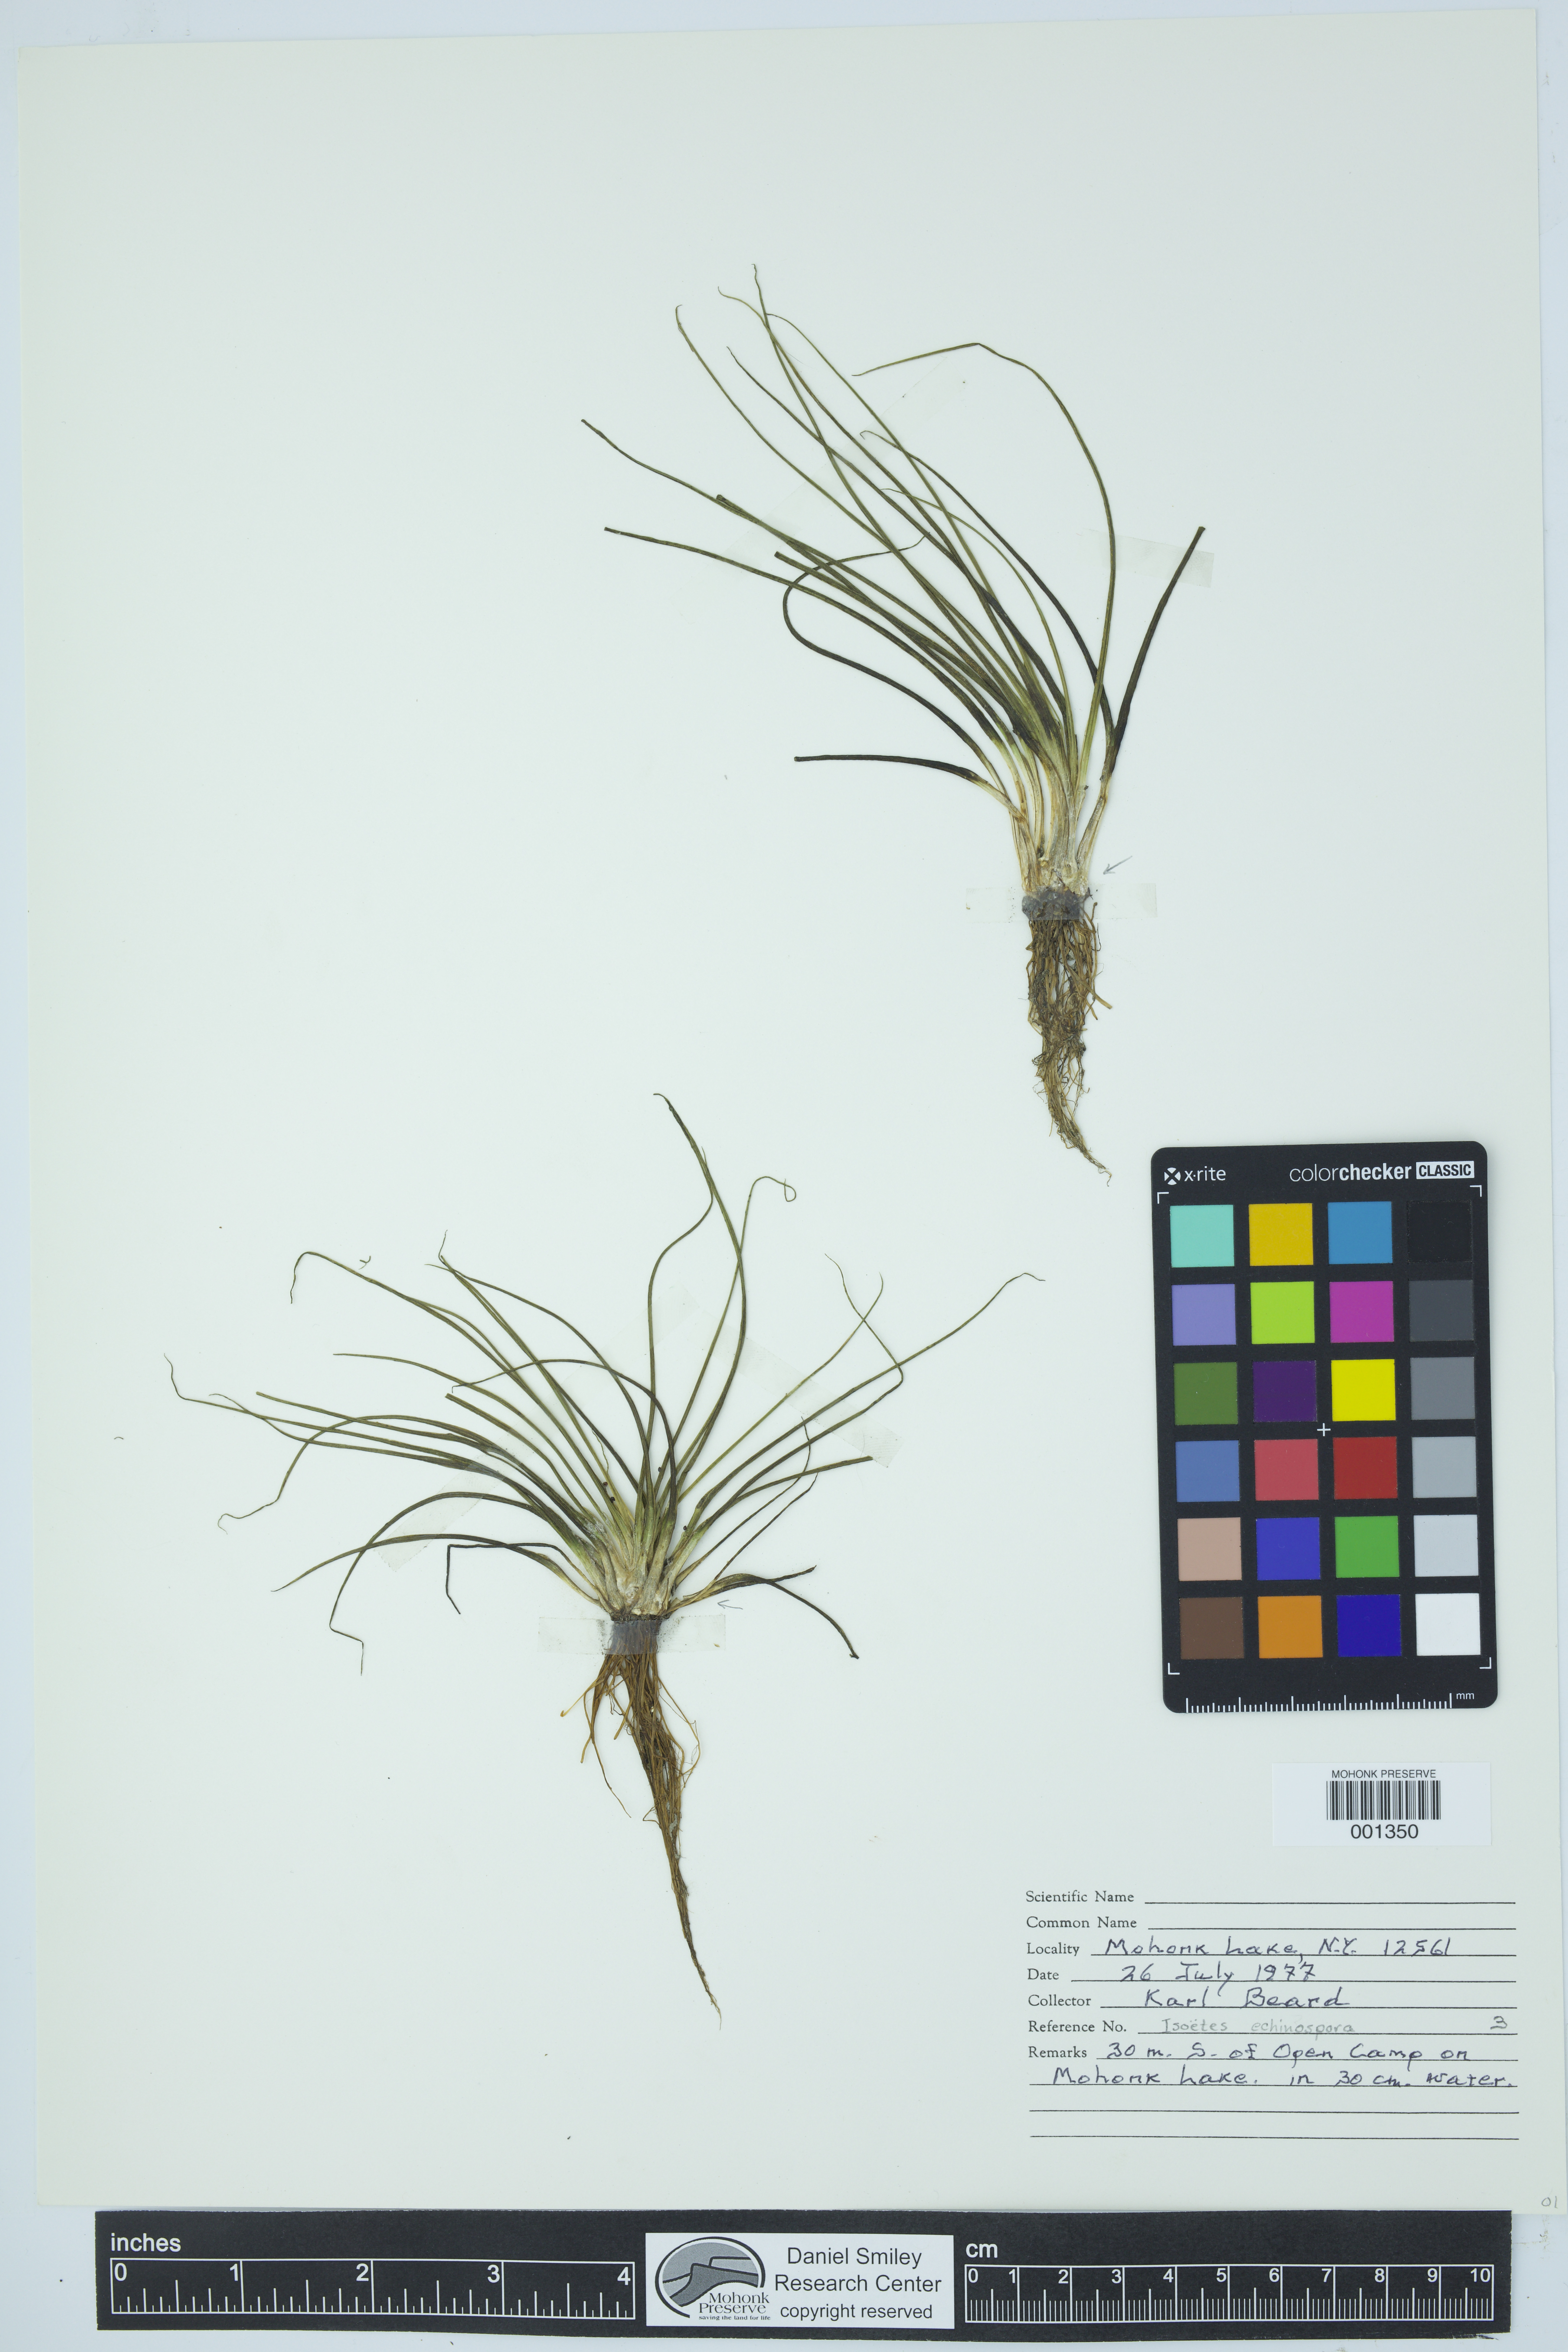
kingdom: Plantae
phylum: Tracheophyta
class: Lycopodiopsida
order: Isoetales
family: Isoetaceae
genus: Isoetes
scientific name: Isoetes echinospora
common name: Spring quillwort
